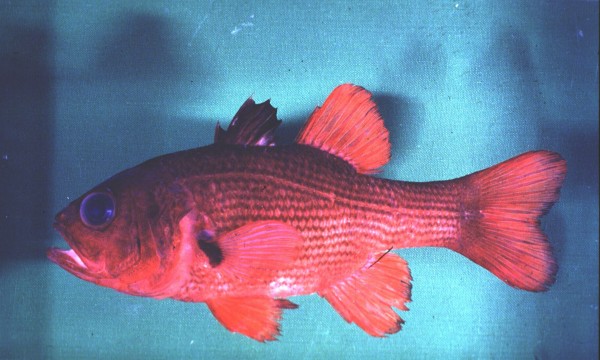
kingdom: Animalia
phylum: Chordata
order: Perciformes
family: Apogonidae
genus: Lepidamia
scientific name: Lepidamia natalensis
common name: Smallscale cardinal
